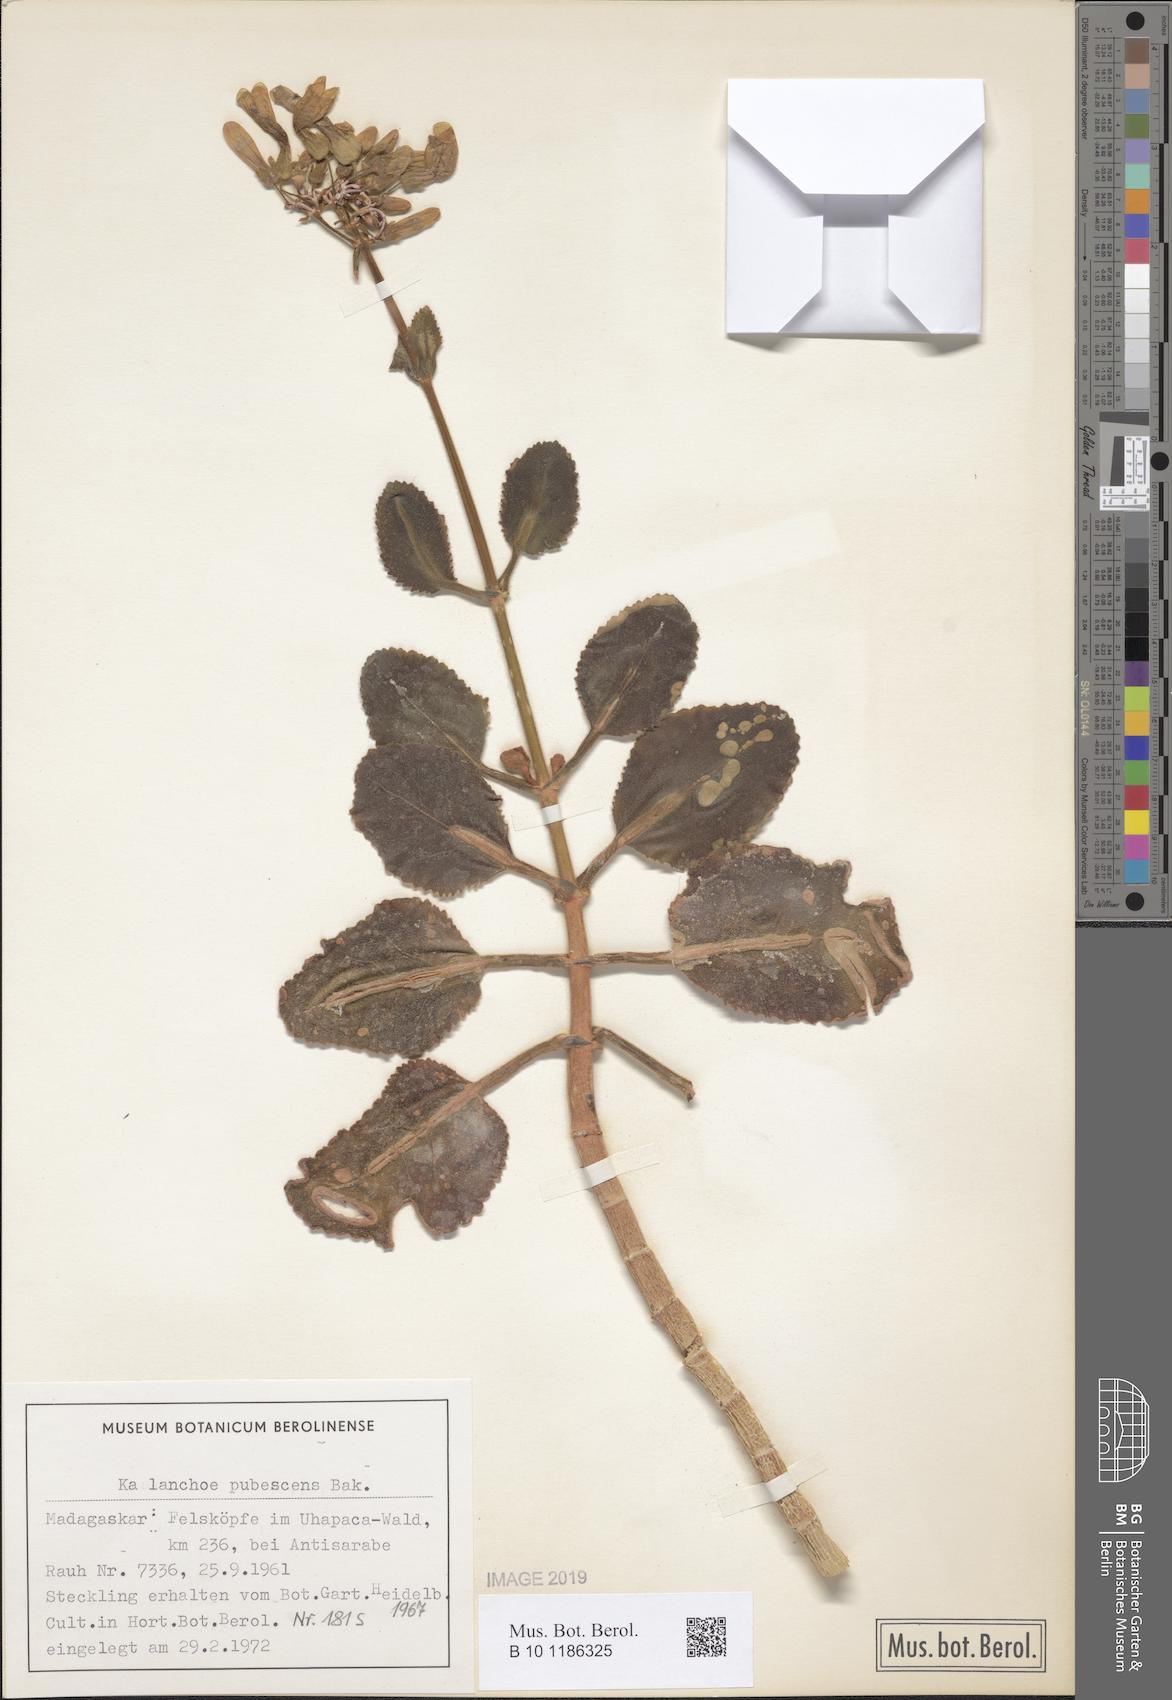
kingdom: Plantae
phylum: Tracheophyta
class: Magnoliopsida
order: Saxifragales
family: Crassulaceae
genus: Kalanchoe
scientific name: Kalanchoe pubescens
